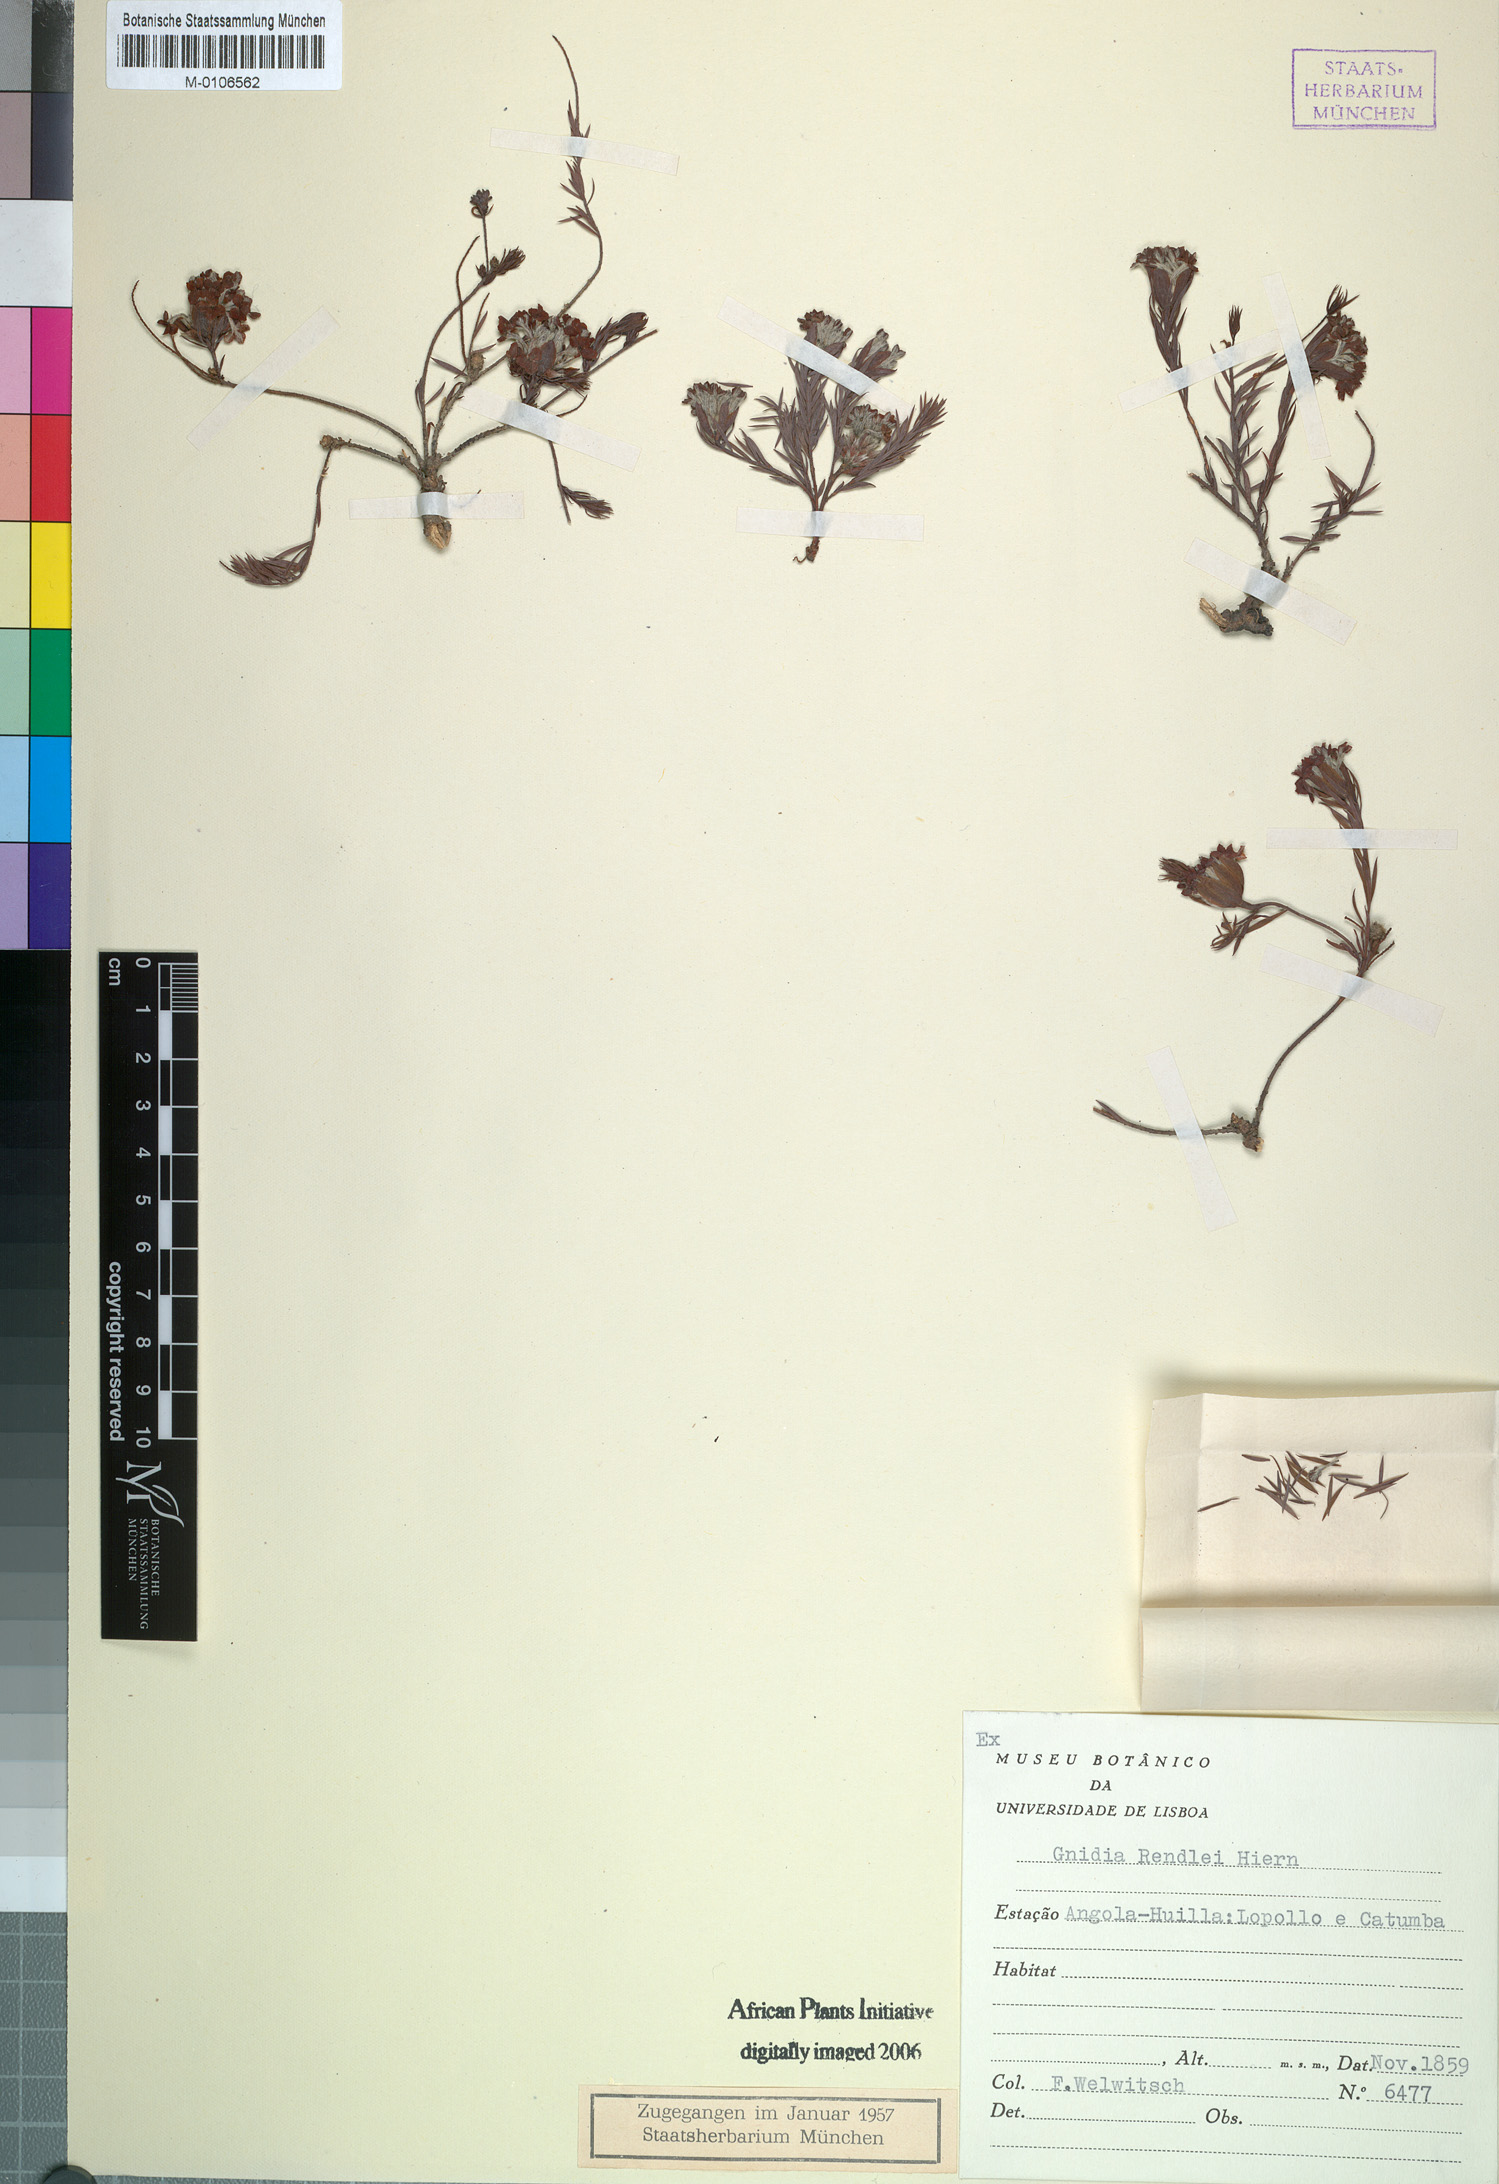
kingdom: Plantae
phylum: Tracheophyta
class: Magnoliopsida
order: Malvales
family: Thymelaeaceae
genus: Gnidia
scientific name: Gnidia rendlei
